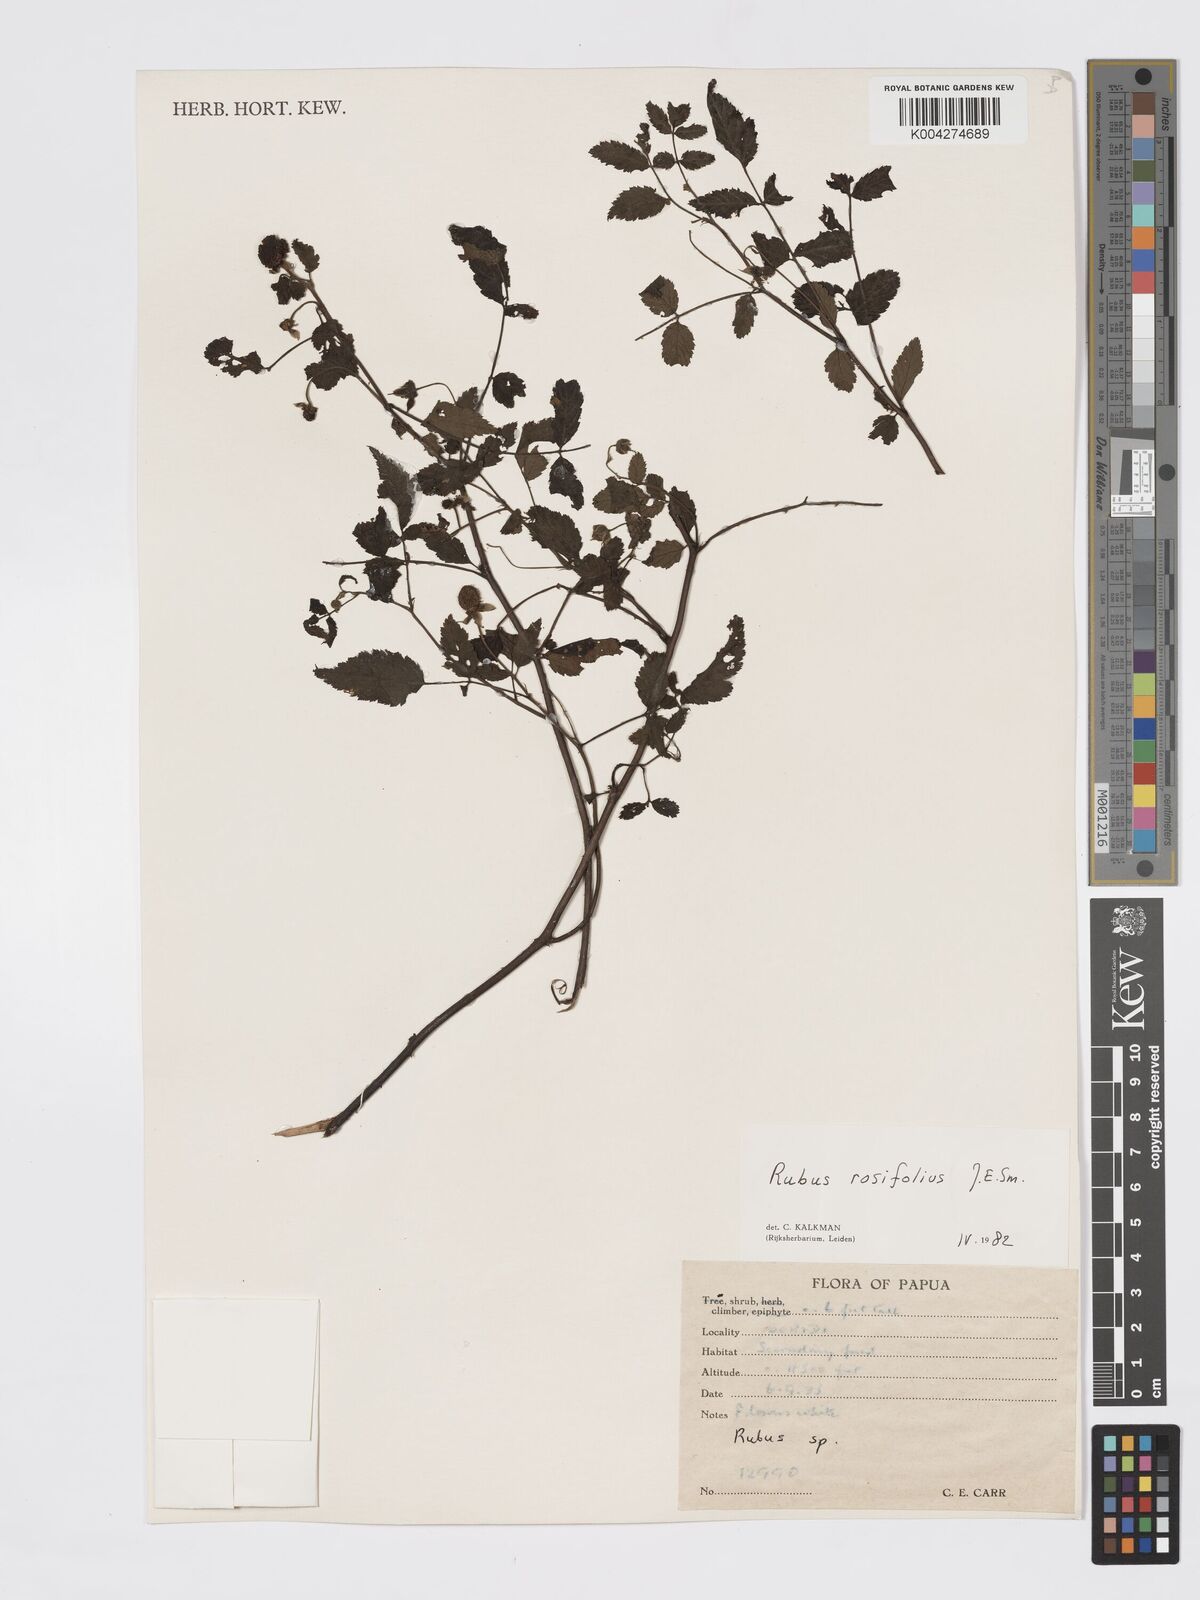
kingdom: Plantae
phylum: Tracheophyta
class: Magnoliopsida
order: Rosales
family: Rosaceae
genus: Rubus
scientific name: Rubus
